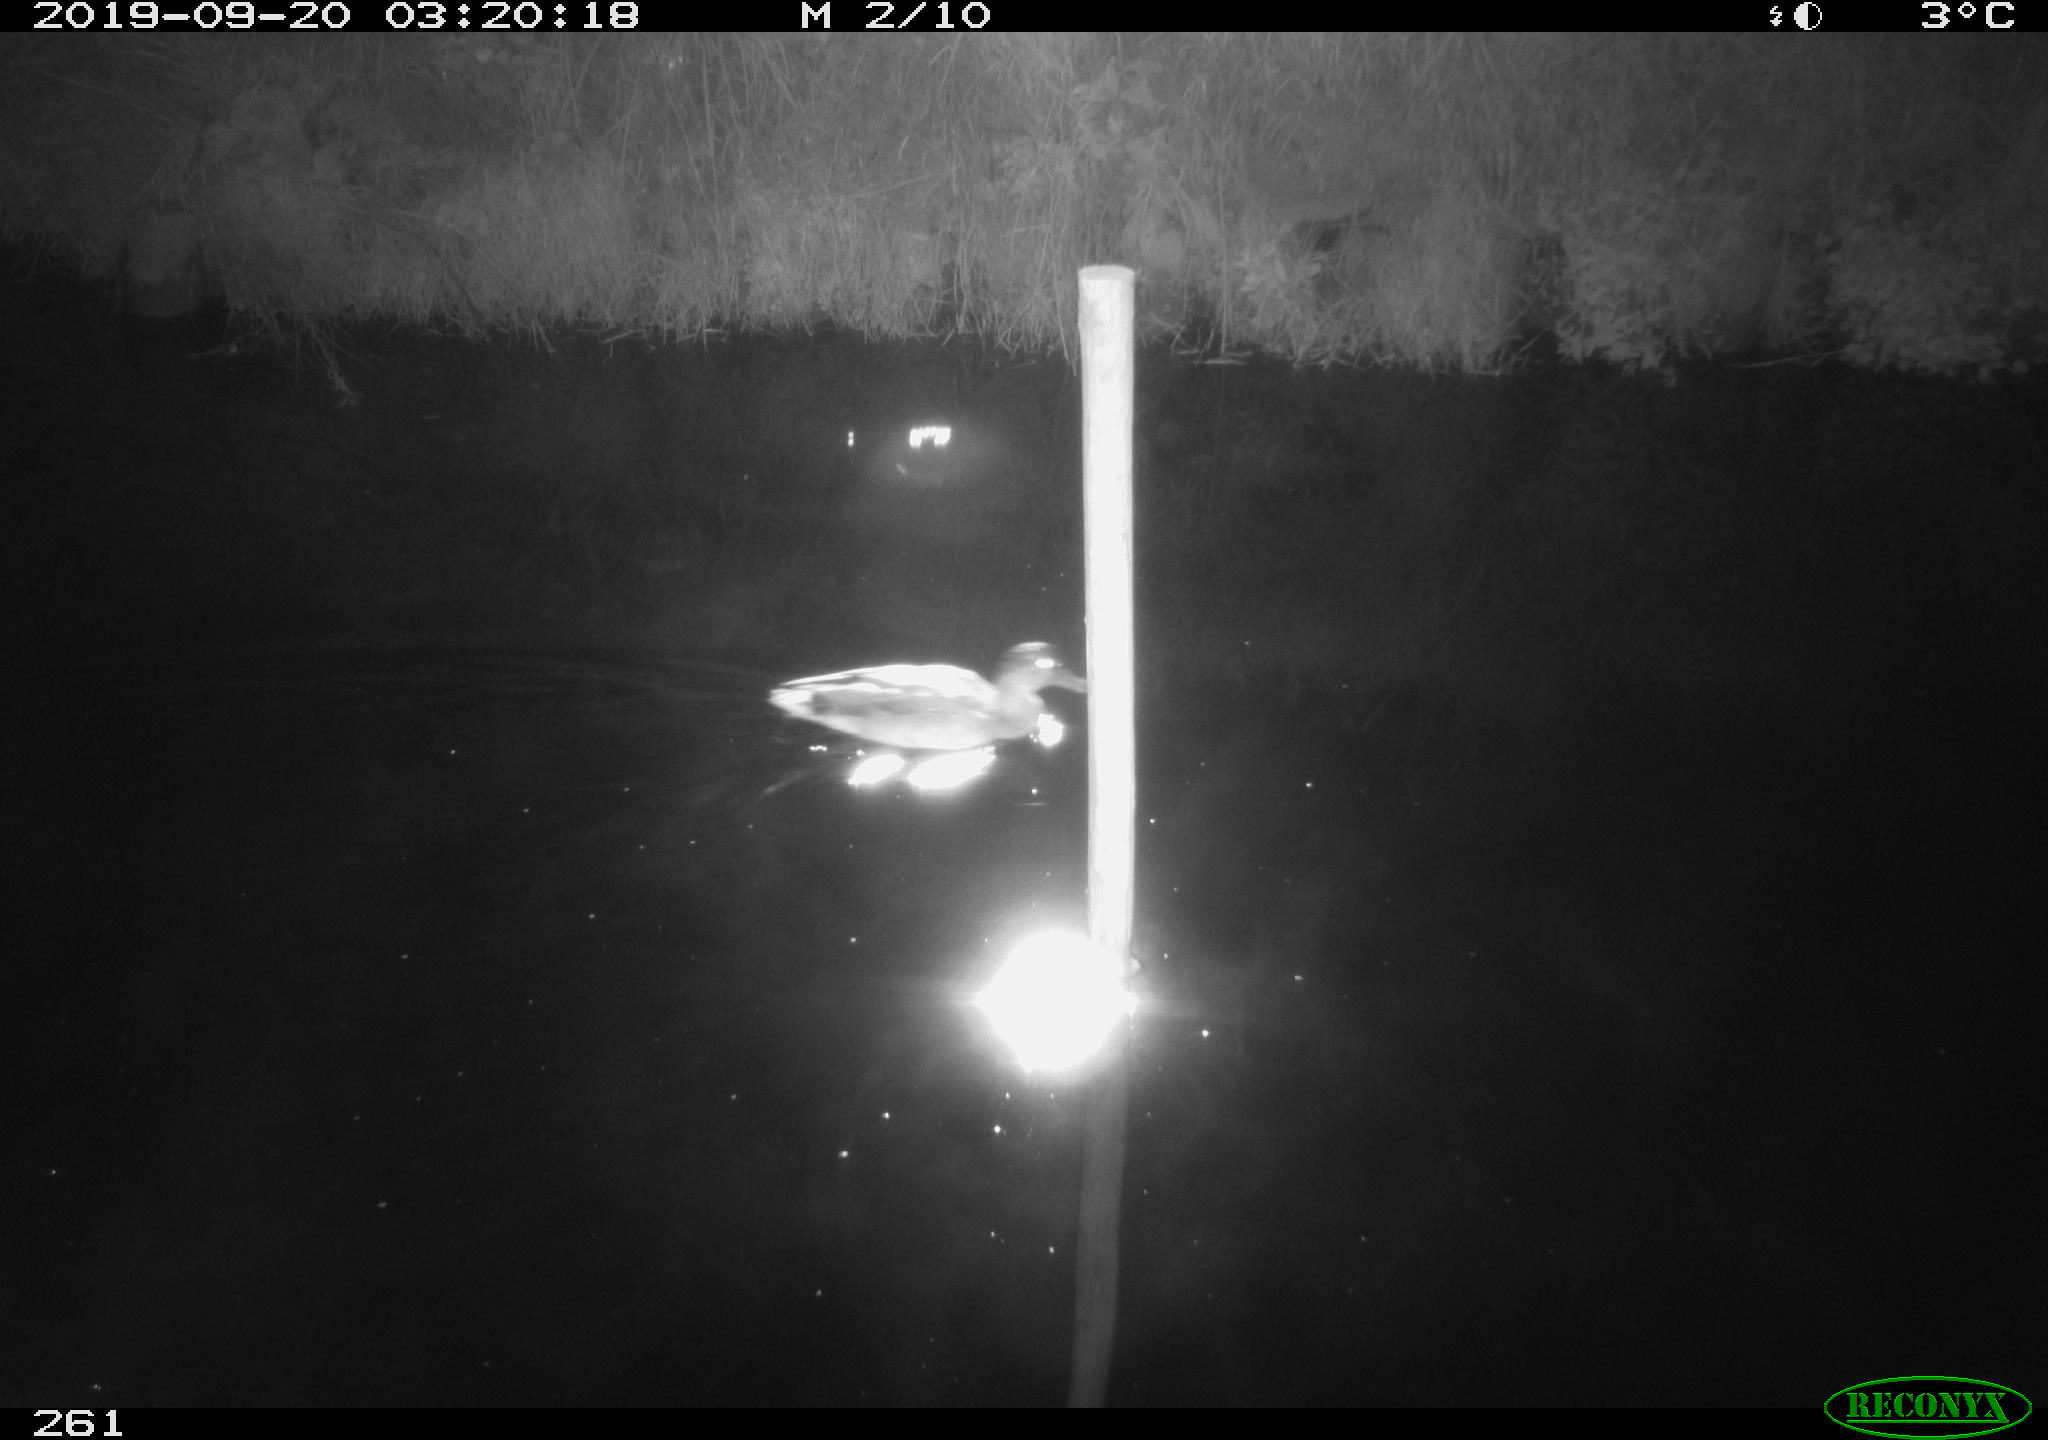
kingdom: Animalia
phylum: Chordata
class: Aves
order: Anseriformes
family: Anatidae
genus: Anas
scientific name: Anas platyrhynchos
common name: Mallard
